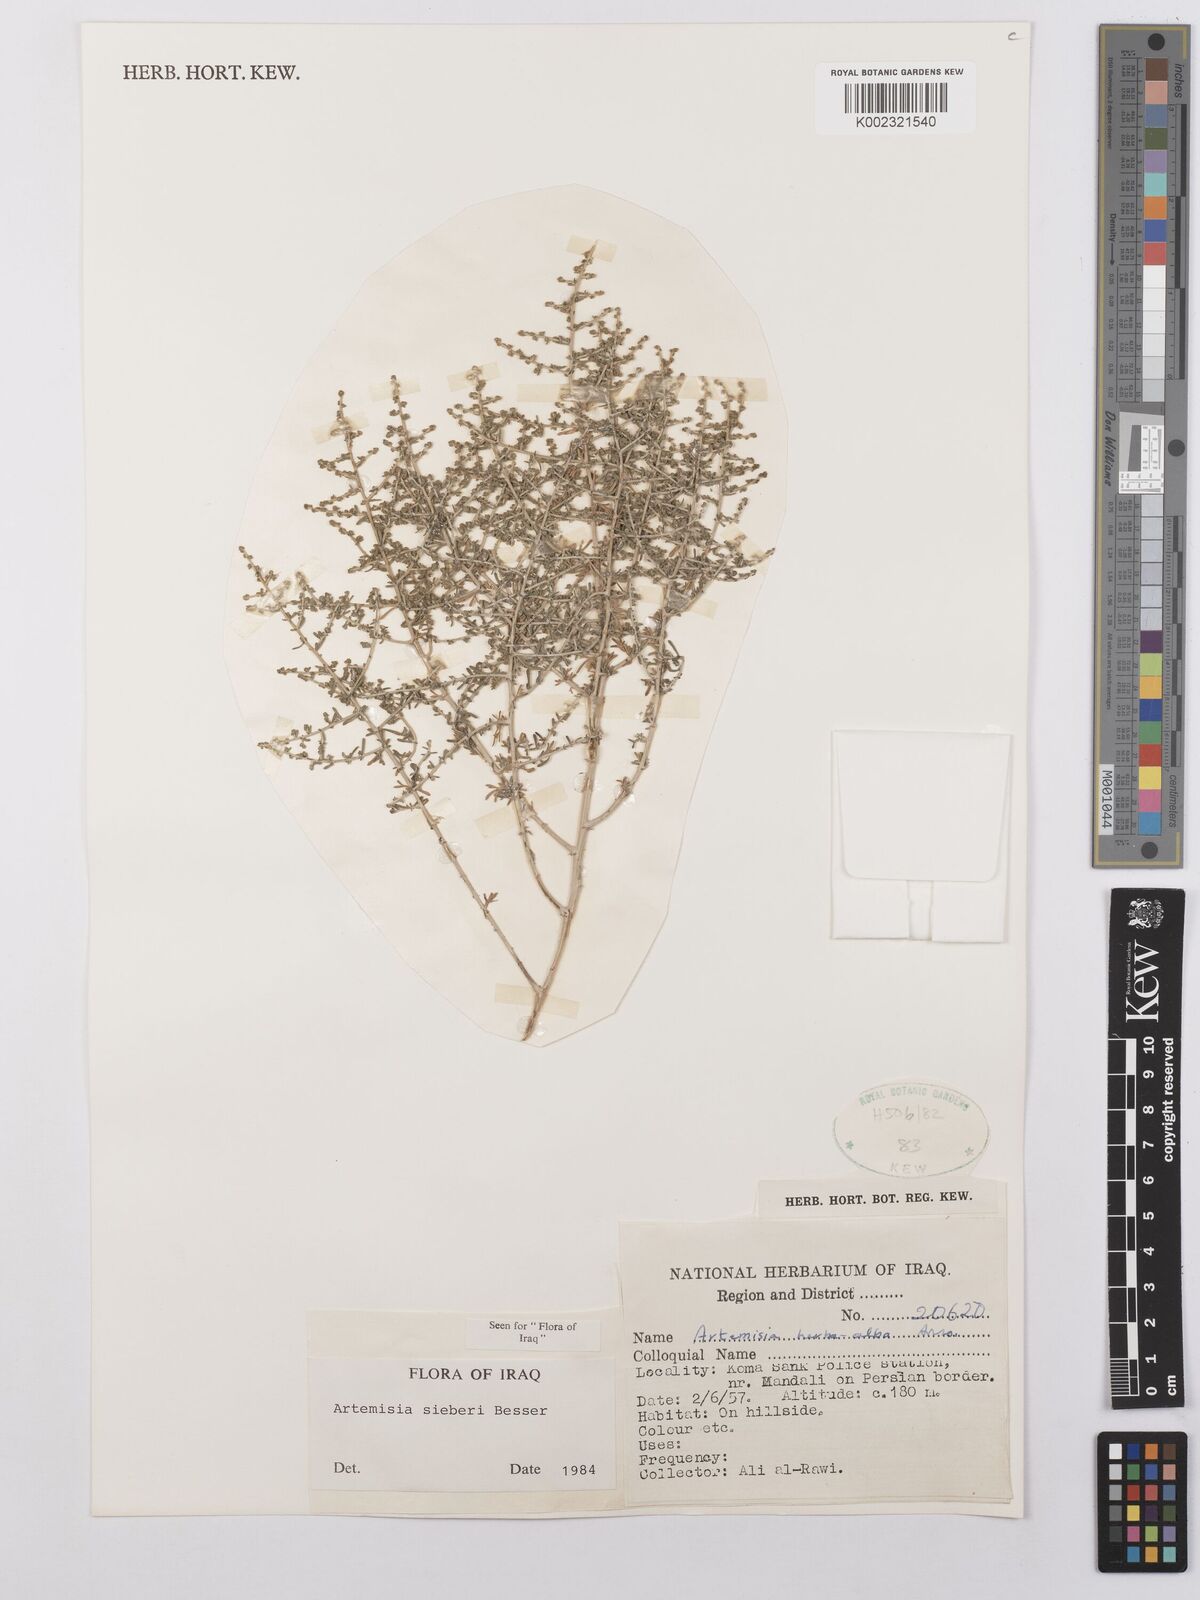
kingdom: Plantae
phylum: Tracheophyta
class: Magnoliopsida
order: Asterales
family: Asteraceae
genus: Artemisia
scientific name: Artemisia sieberi
